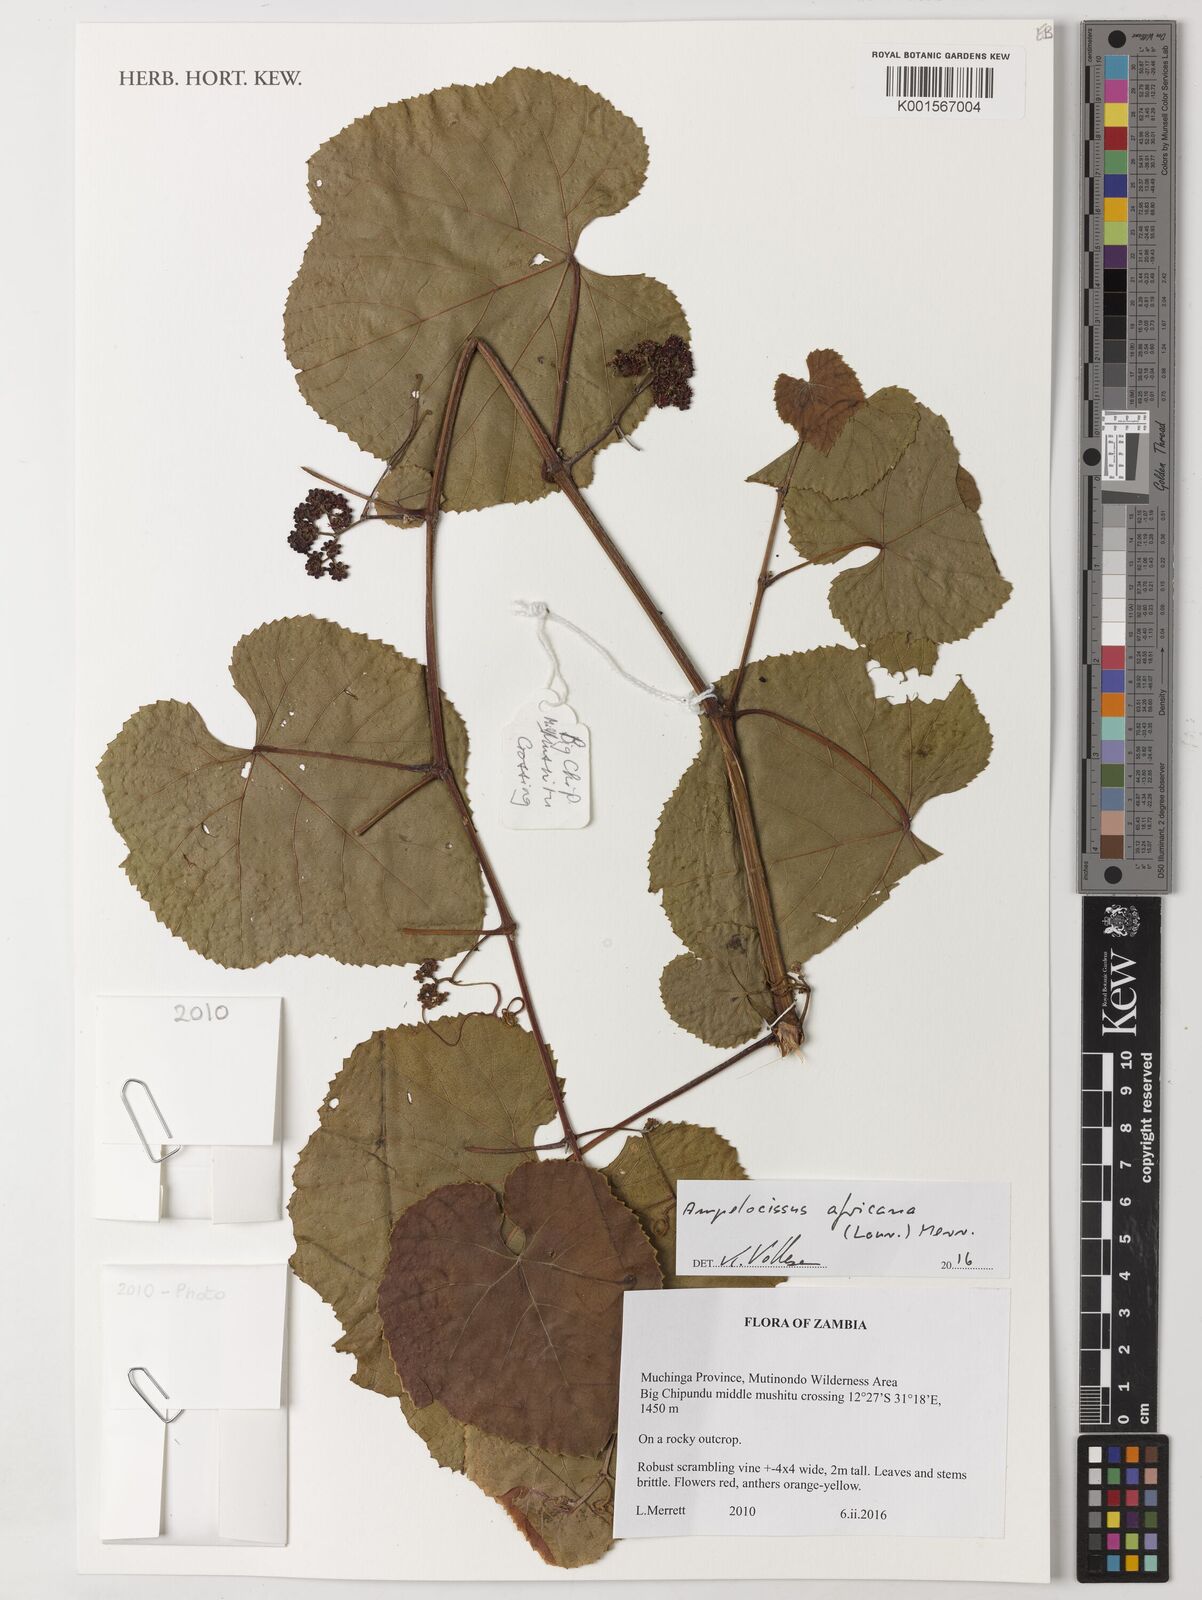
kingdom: Plantae
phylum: Tracheophyta
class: Magnoliopsida
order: Vitales
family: Vitaceae
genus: Ampelocissus
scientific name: Ampelocissus africana
